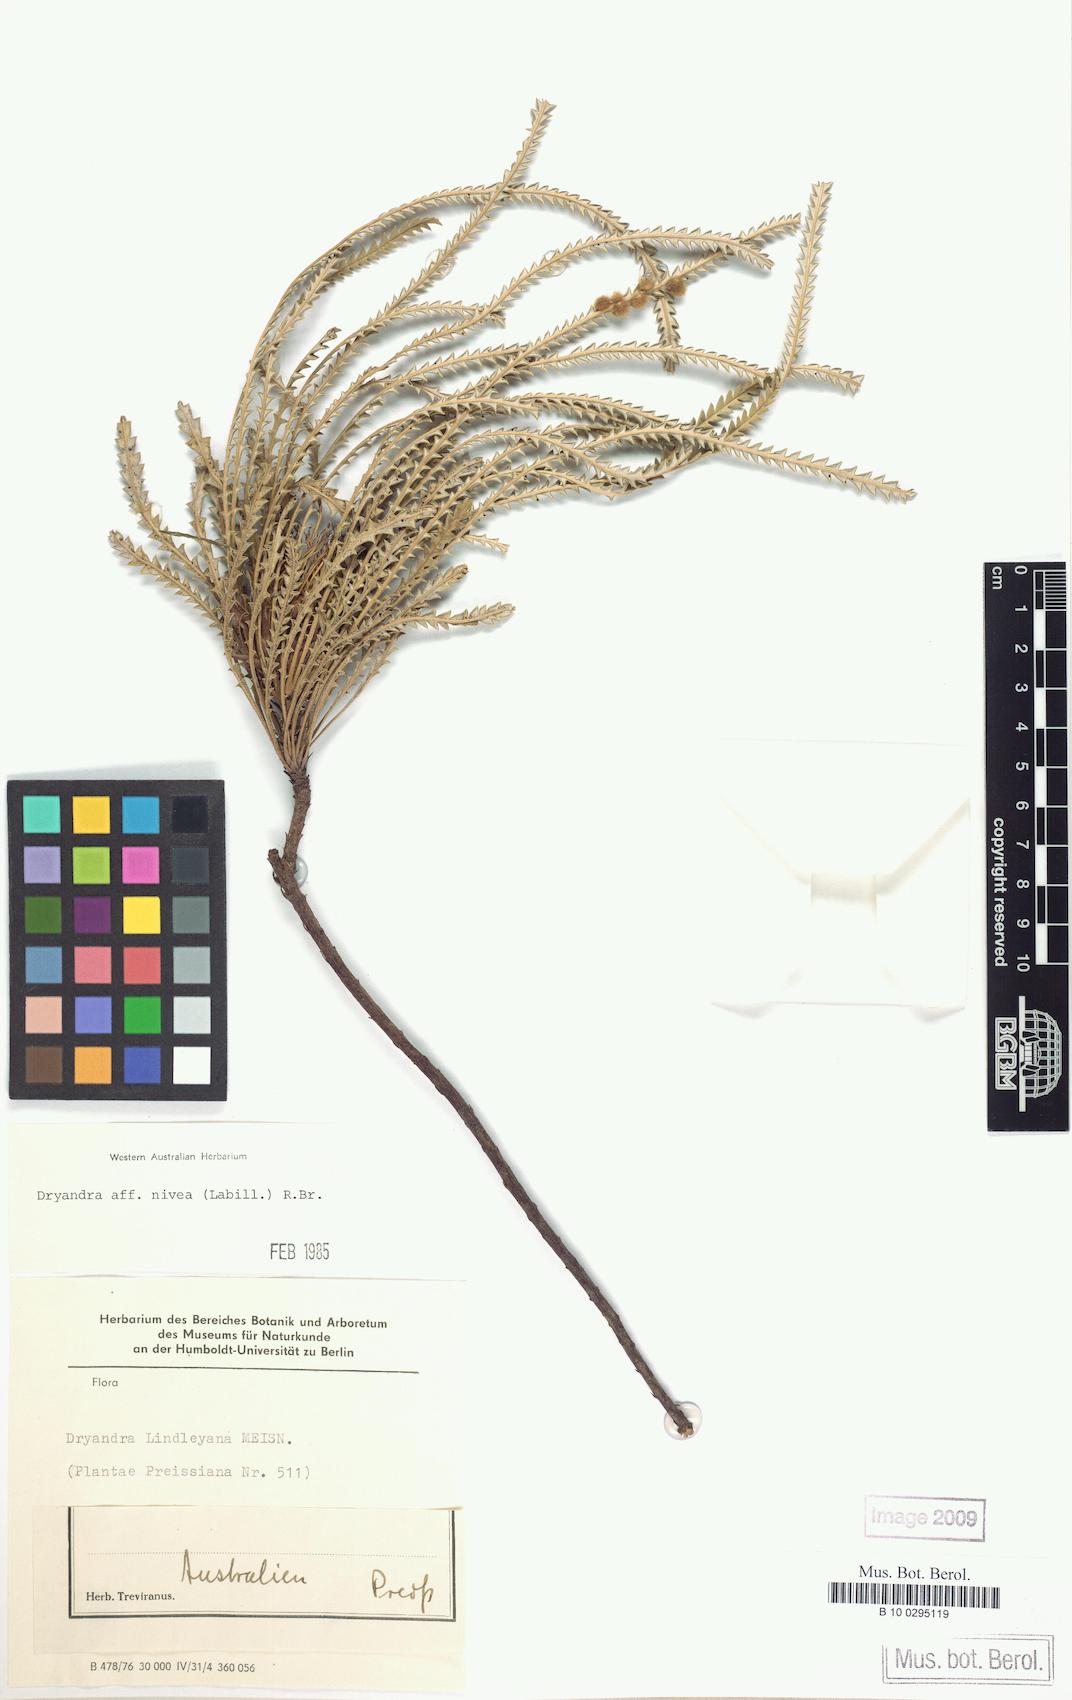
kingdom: Plantae
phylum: Tracheophyta
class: Magnoliopsida
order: Proteales
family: Proteaceae
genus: Banksia
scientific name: Banksia nivea
